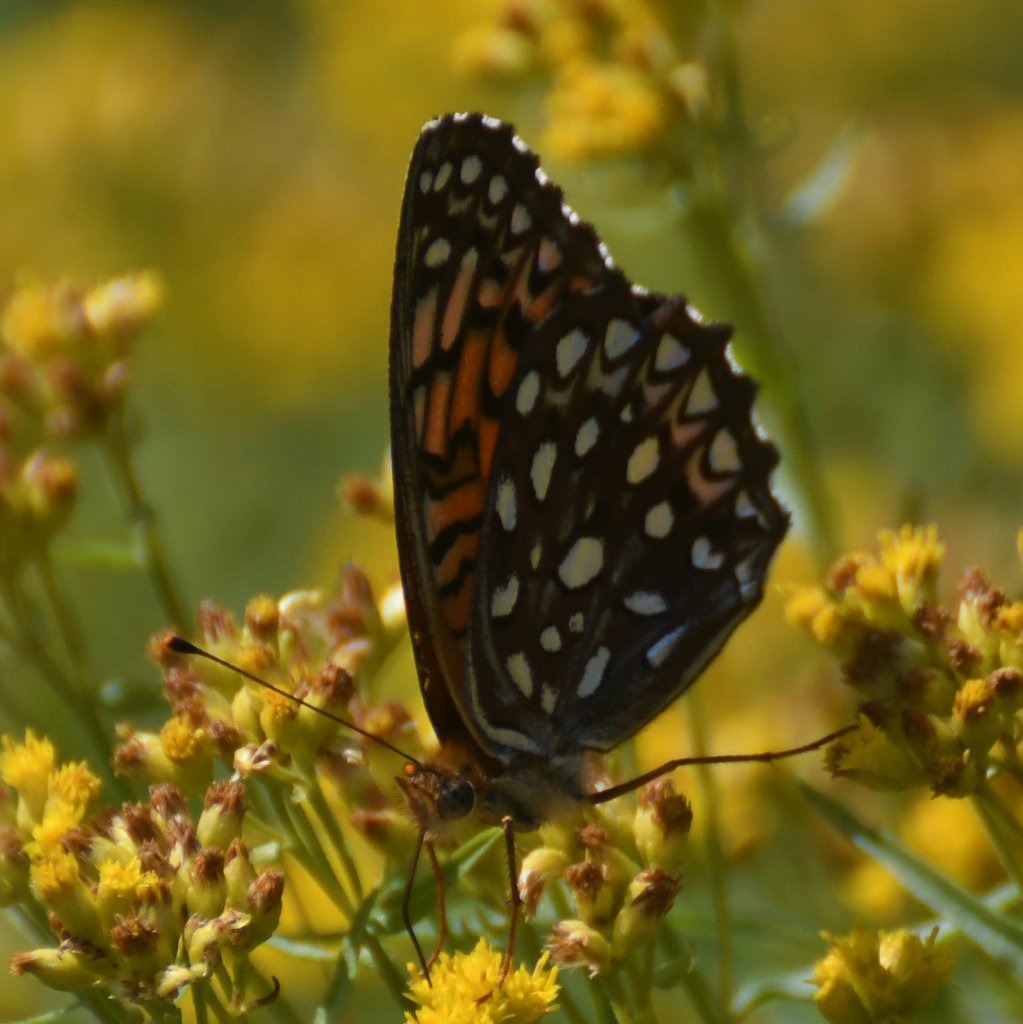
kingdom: Animalia
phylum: Arthropoda
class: Insecta
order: Lepidoptera
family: Nymphalidae
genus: Speyeria
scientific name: Speyeria atlantis
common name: Atlantis Fritillary
